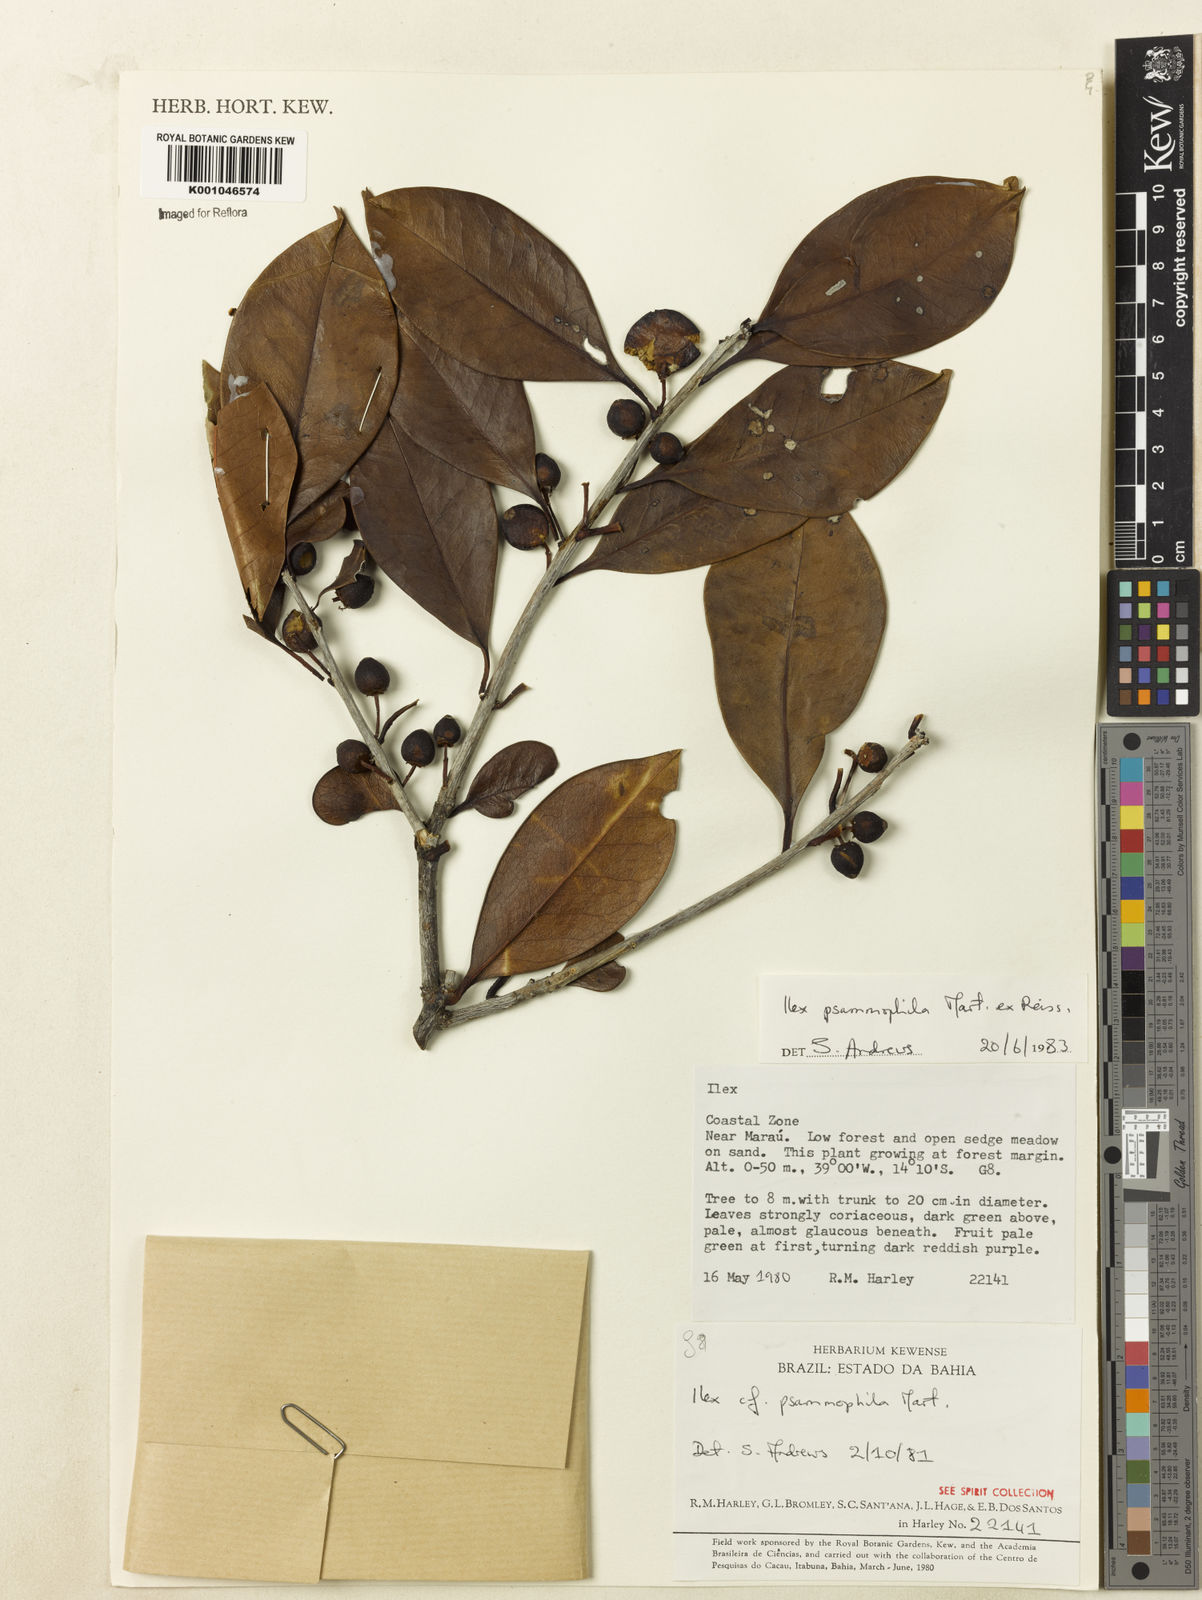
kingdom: Plantae
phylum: Tracheophyta
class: Magnoliopsida
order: Aquifoliales
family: Aquifoliaceae
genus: Ilex
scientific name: Ilex psammophila
